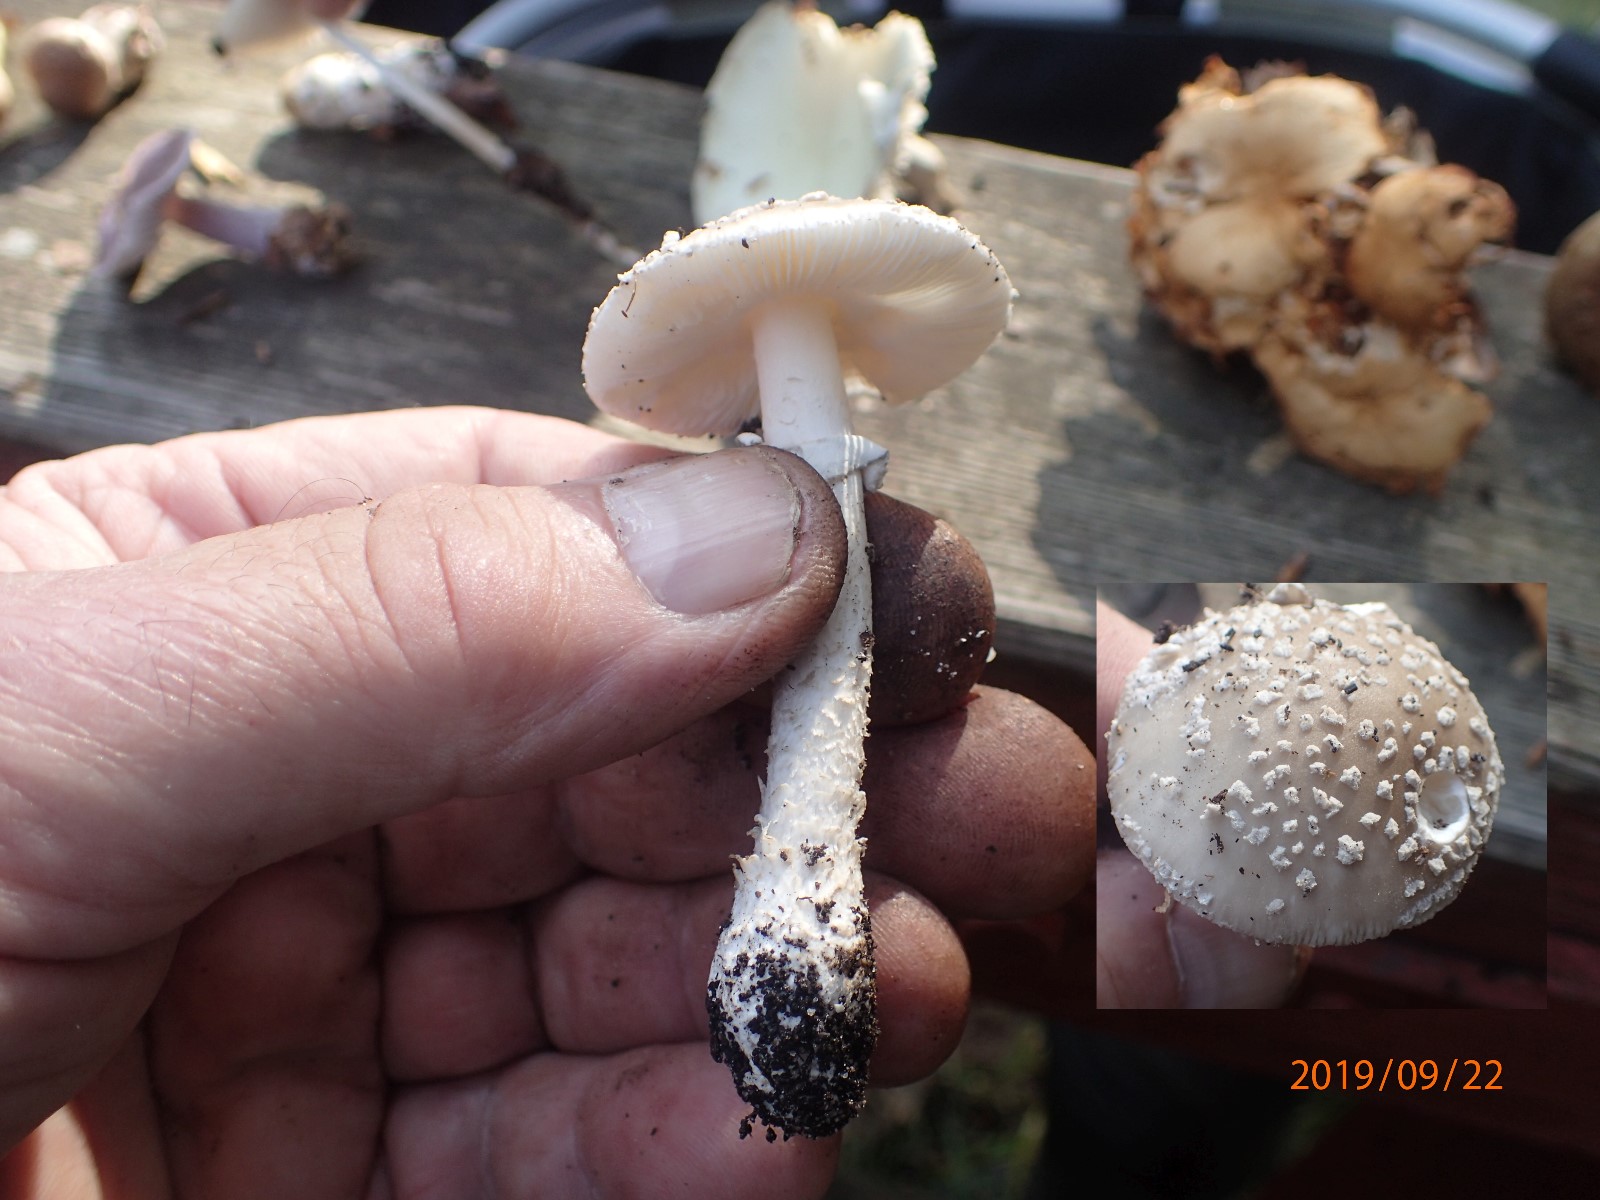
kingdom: Fungi
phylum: Basidiomycota
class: Agaricomycetes
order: Agaricales
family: Amanitaceae
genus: Amanita
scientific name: Amanita pantherina
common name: panter-fluesvamp
